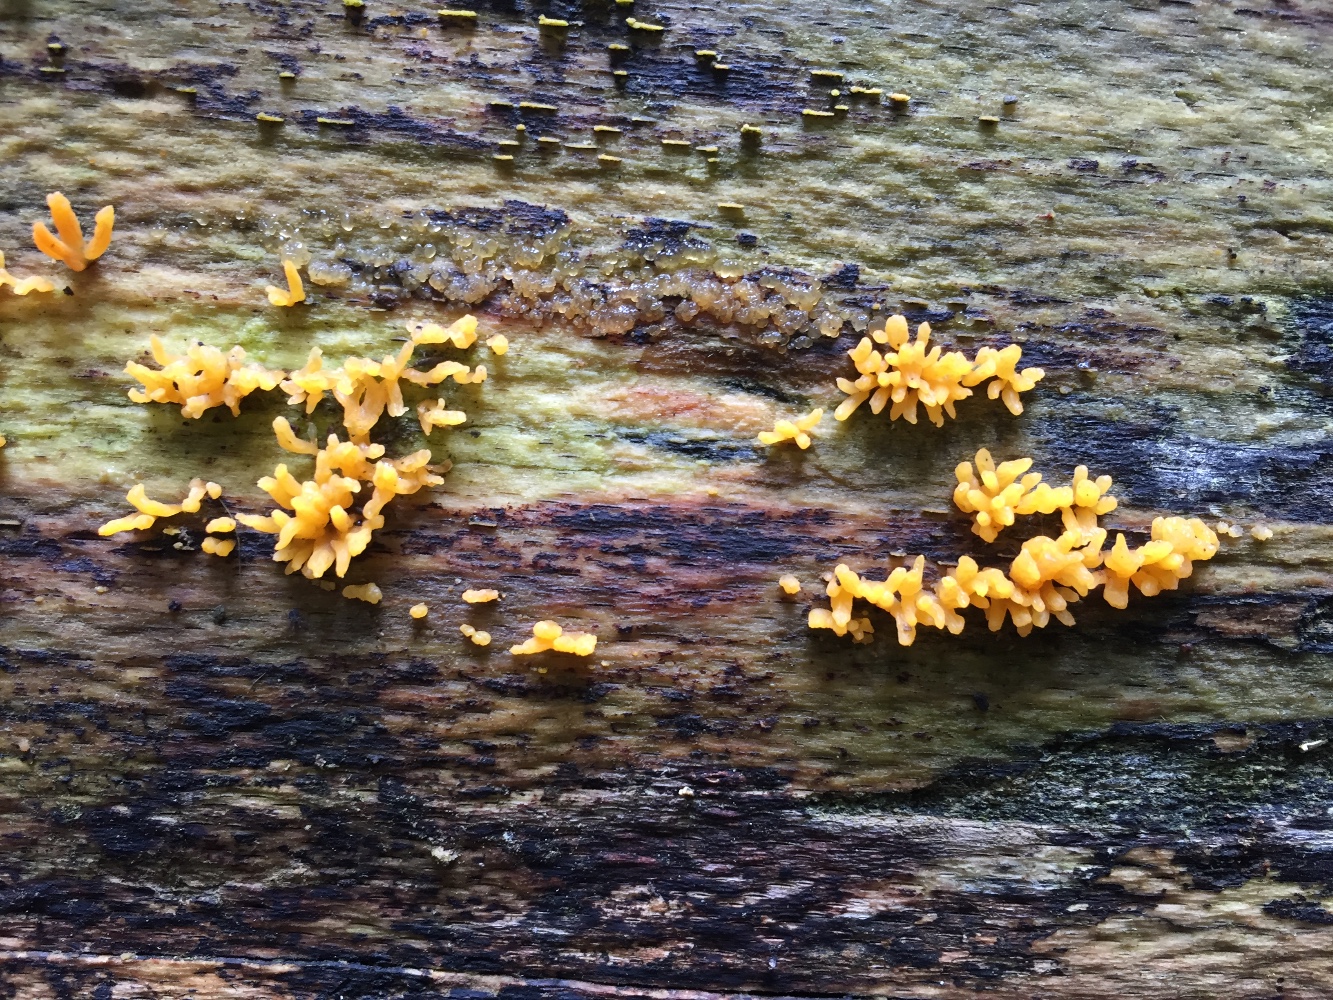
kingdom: Fungi
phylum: Basidiomycota
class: Dacrymycetes
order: Dacrymycetales
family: Dacrymycetaceae
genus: Calocera
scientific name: Calocera cornea
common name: liden guldgaffel
